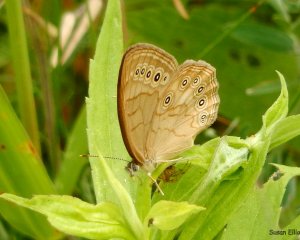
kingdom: Animalia
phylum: Arthropoda
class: Insecta
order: Lepidoptera
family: Nymphalidae
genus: Lethe
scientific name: Lethe eurydice
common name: Eyed Brown
